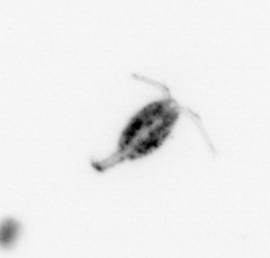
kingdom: Animalia
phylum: Arthropoda
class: Copepoda
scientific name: Copepoda
